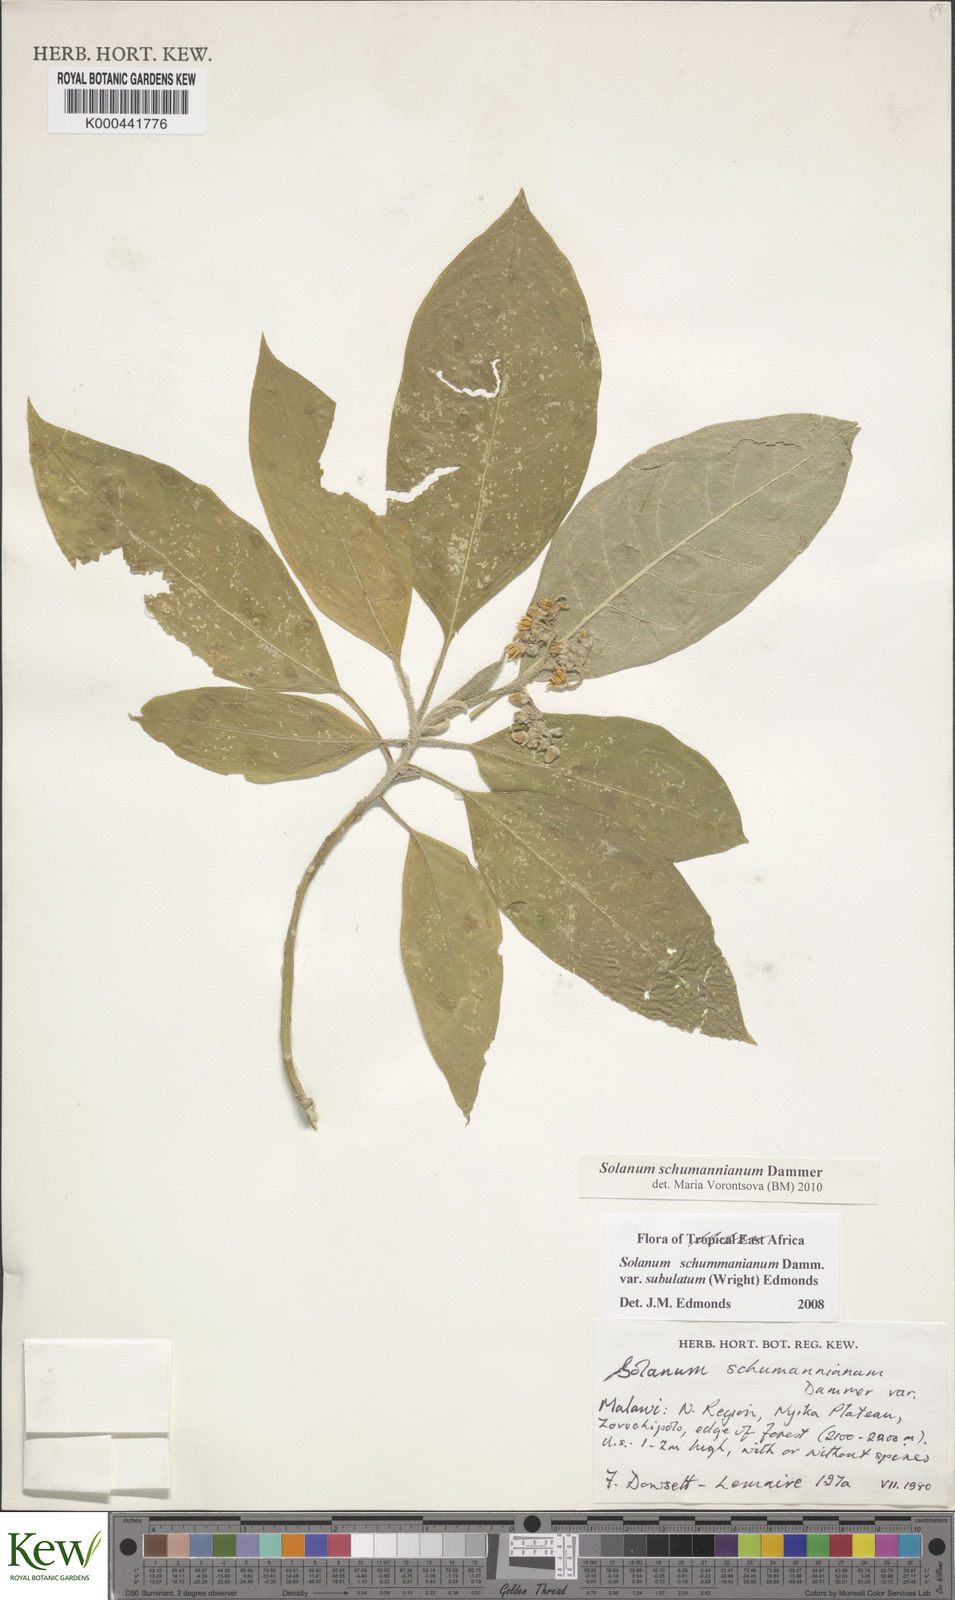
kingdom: Plantae
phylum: Tracheophyta
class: Magnoliopsida
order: Solanales
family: Solanaceae
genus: Solanum
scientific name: Solanum schumannianum
